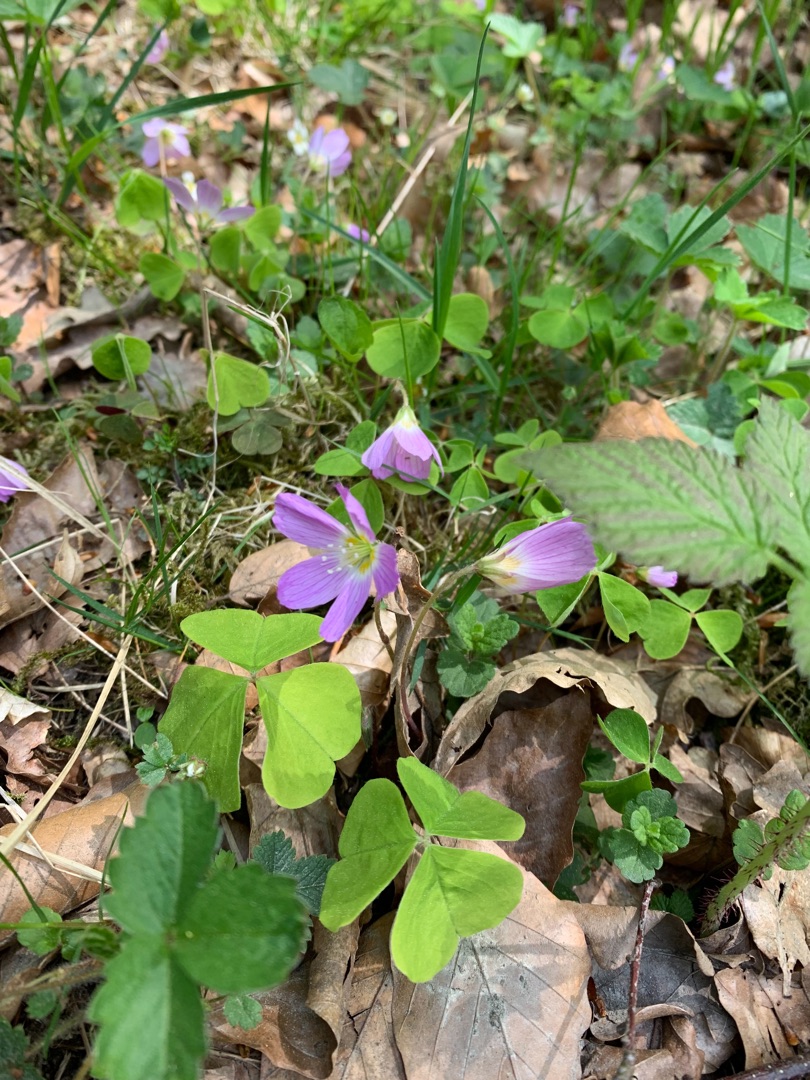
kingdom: Plantae
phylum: Tracheophyta
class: Magnoliopsida
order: Oxalidales
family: Oxalidaceae
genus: Oxalis
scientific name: Oxalis acetosella
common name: Skovsyre
